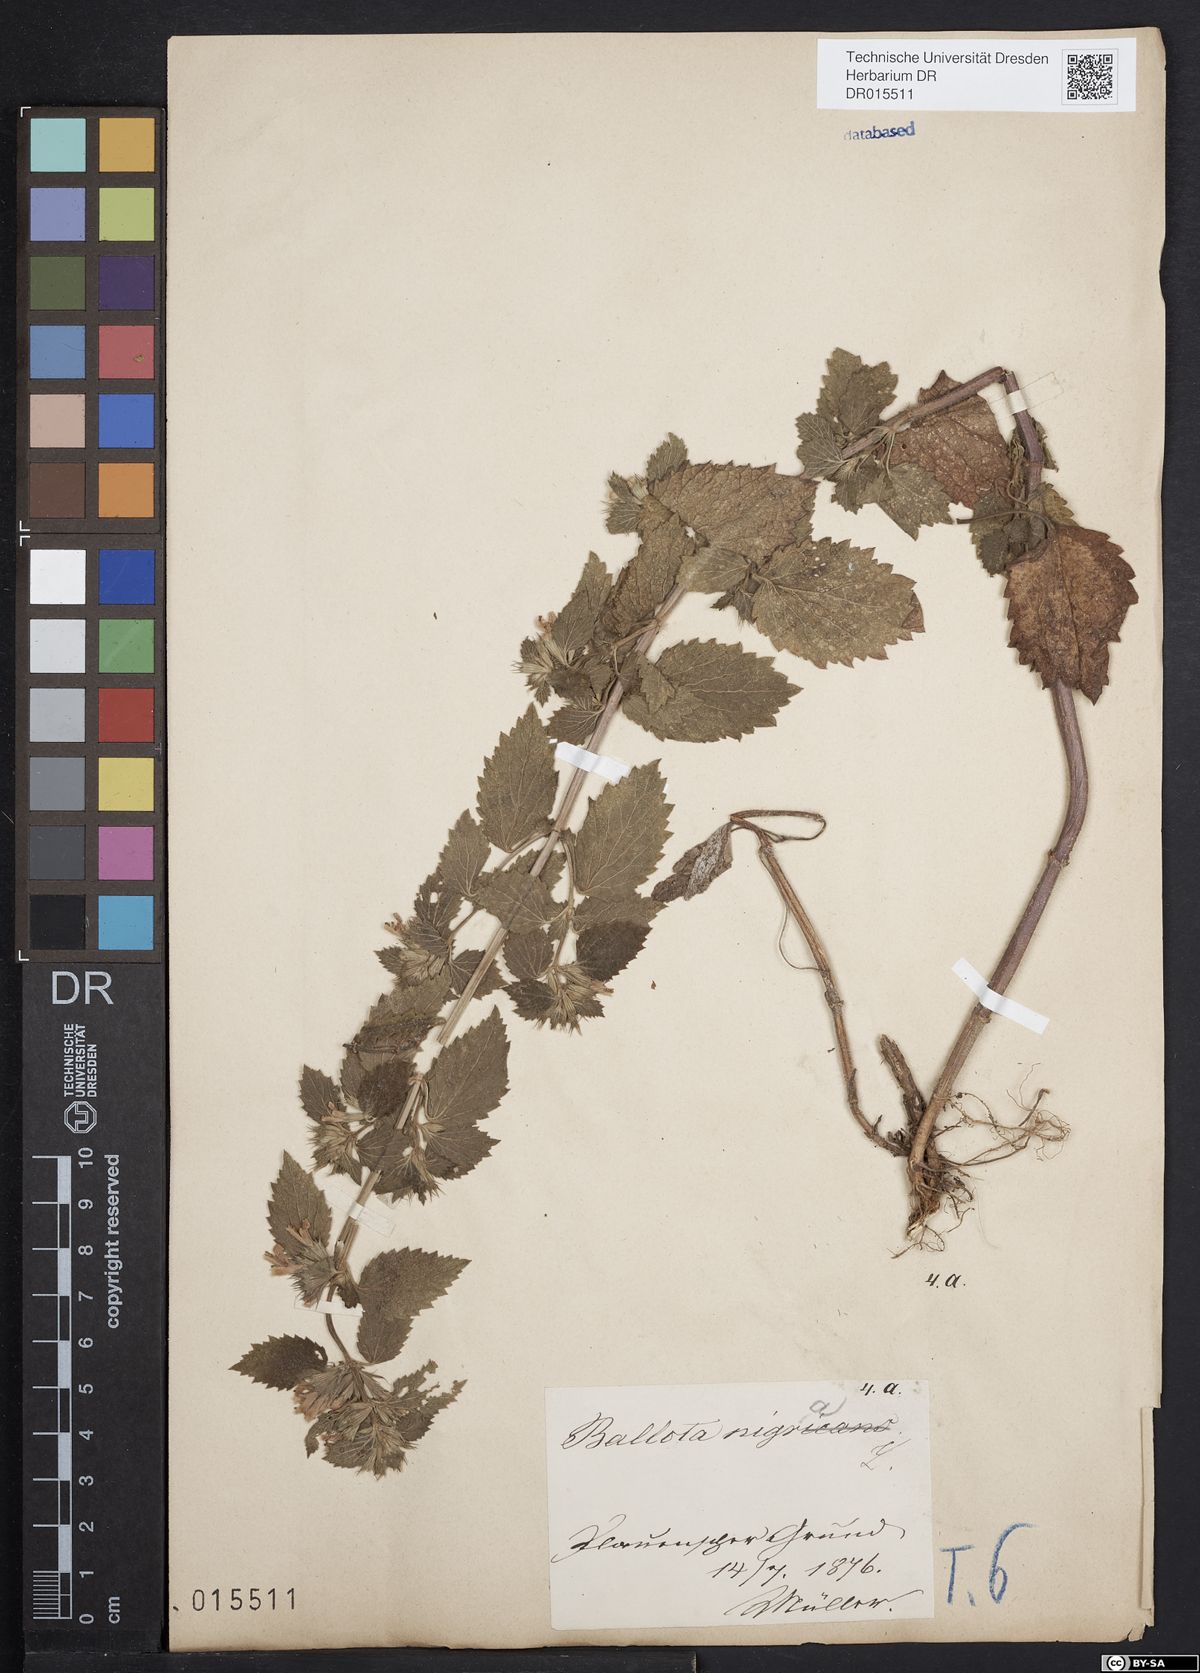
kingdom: Plantae
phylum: Tracheophyta
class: Magnoliopsida
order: Lamiales
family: Lamiaceae
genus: Ballota
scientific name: Ballota nigra
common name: Black horehound
